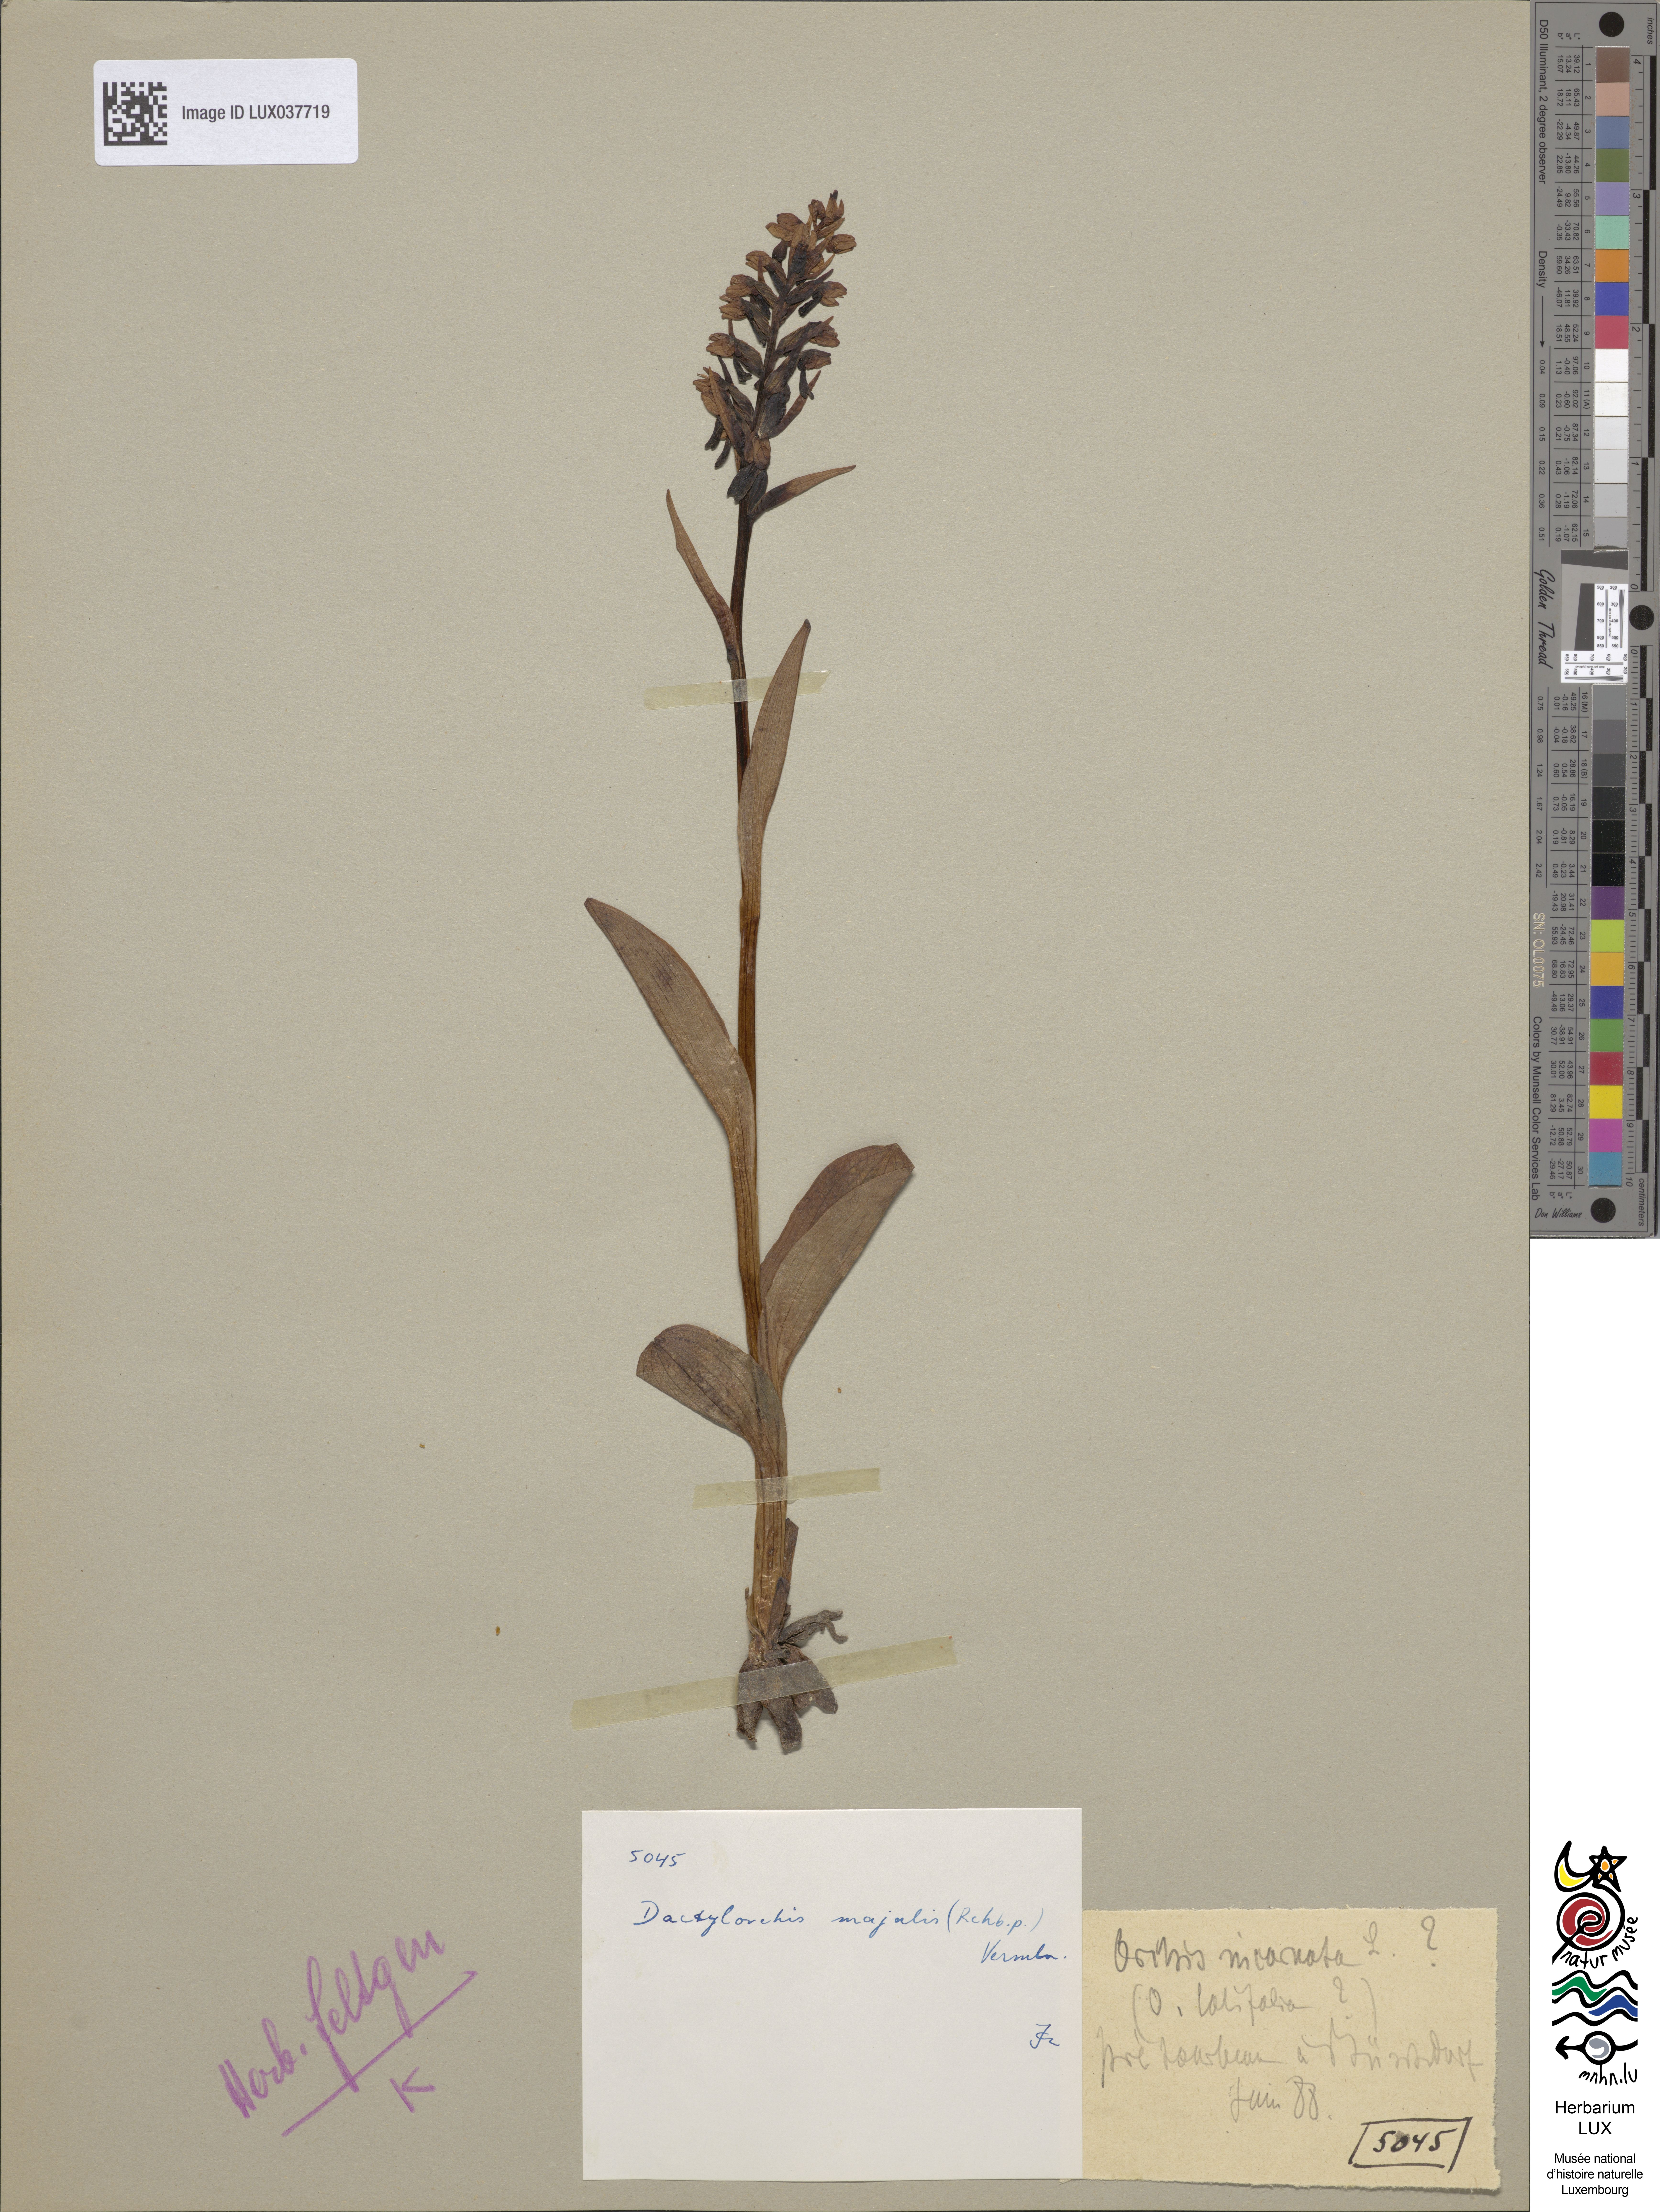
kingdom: Plantae
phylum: Tracheophyta
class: Liliopsida
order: Asparagales
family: Orchidaceae
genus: Dactylorhiza
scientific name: Dactylorhiza incarnata
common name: Early marsh-orchid
